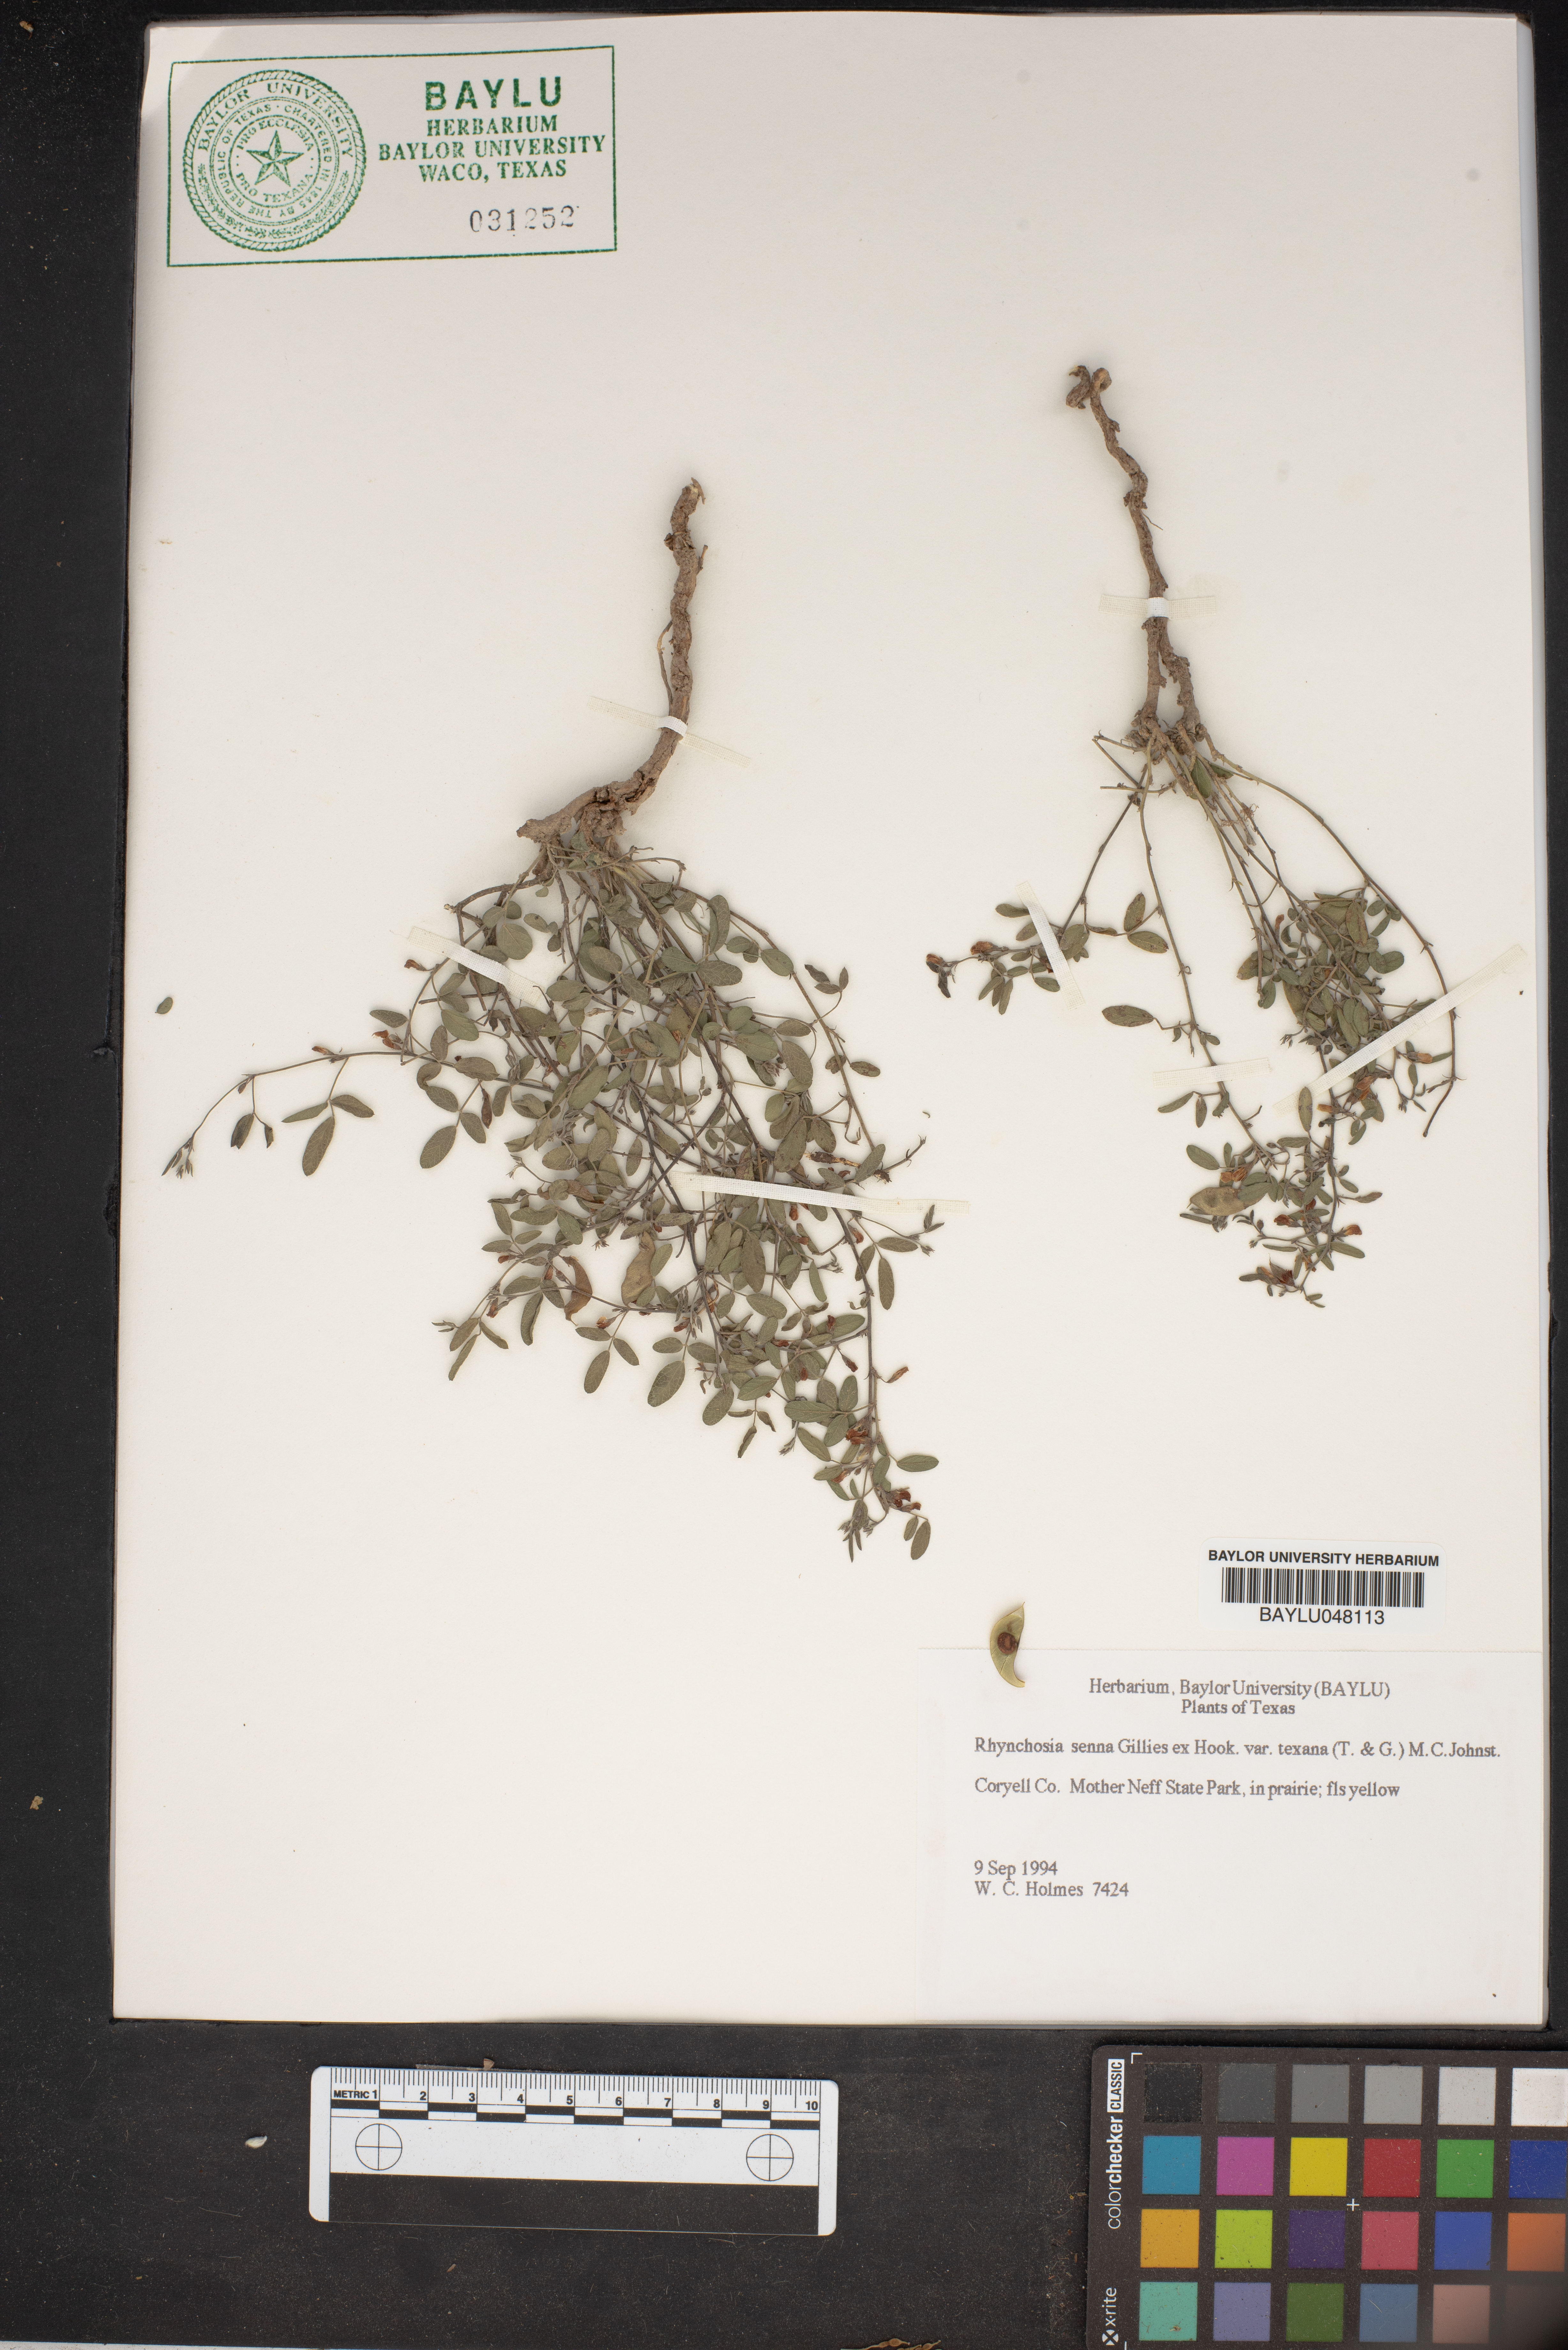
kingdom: Plantae
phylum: Tracheophyta
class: Magnoliopsida
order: Fabales
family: Fabaceae
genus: Rhynchosia
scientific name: Rhynchosia senna
